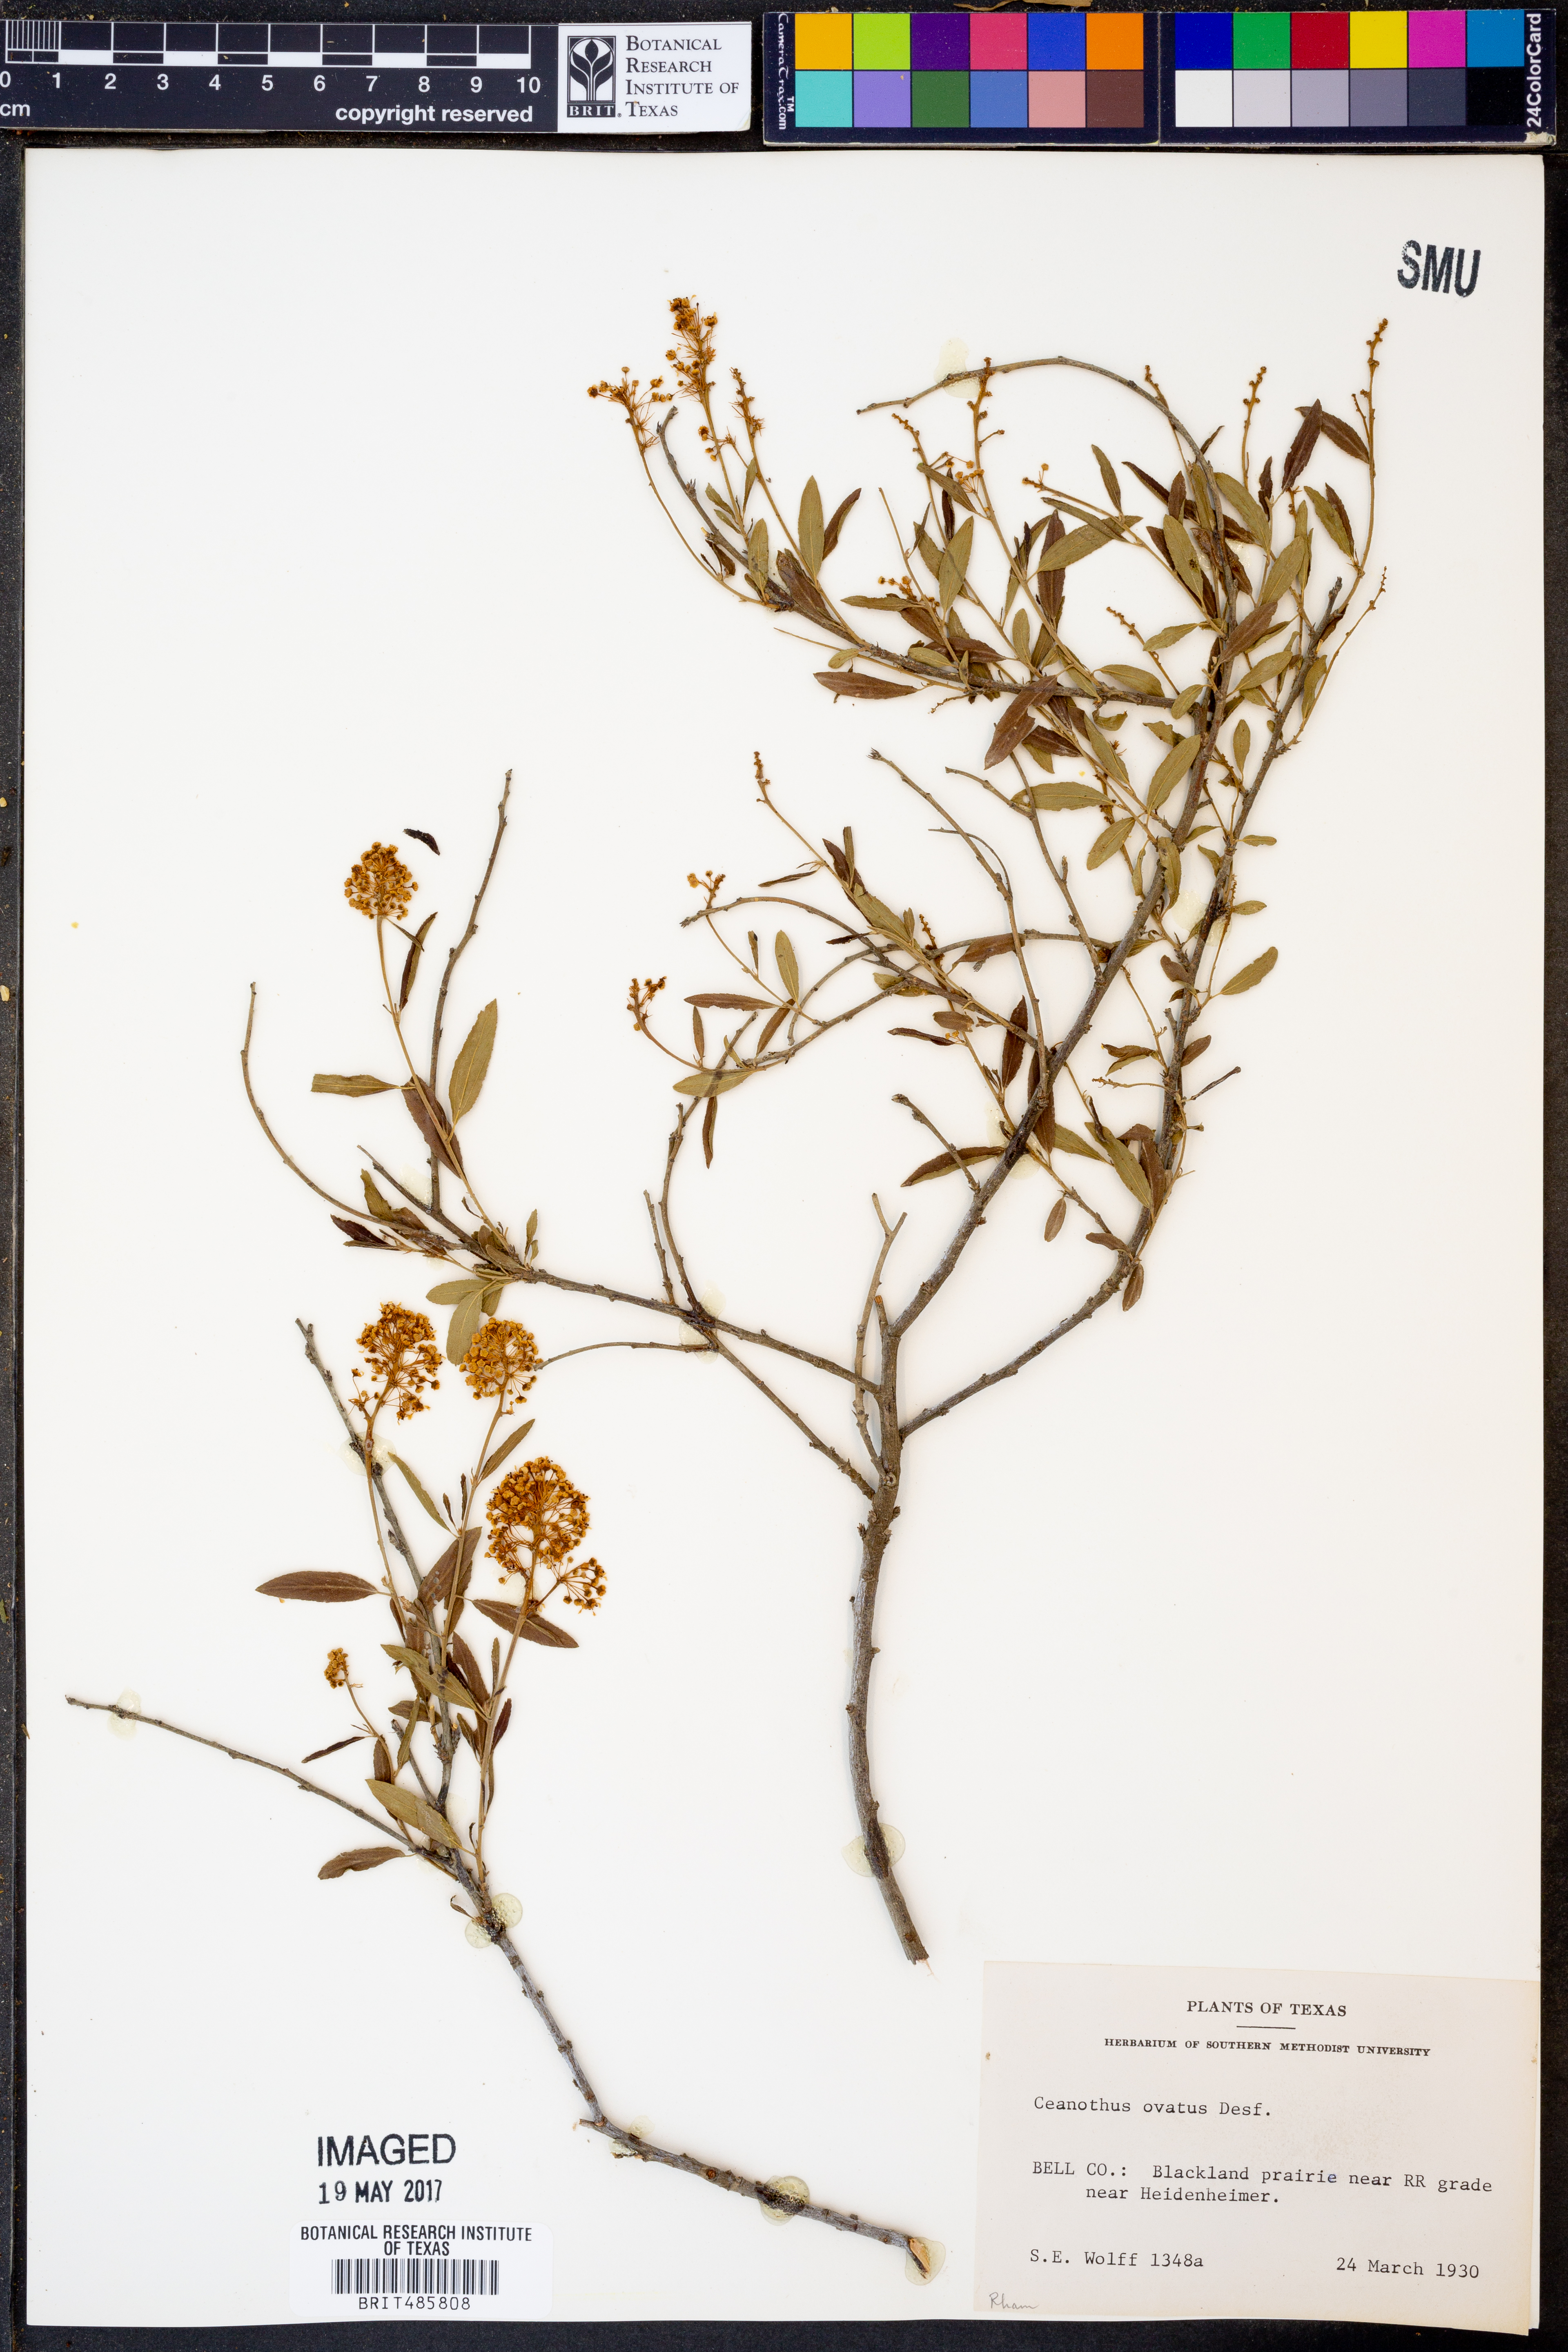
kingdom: Plantae
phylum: Tracheophyta
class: Magnoliopsida
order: Rosales
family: Rhamnaceae
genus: Ceanothus
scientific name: Ceanothus herbaceus
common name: Inland ceanothus
